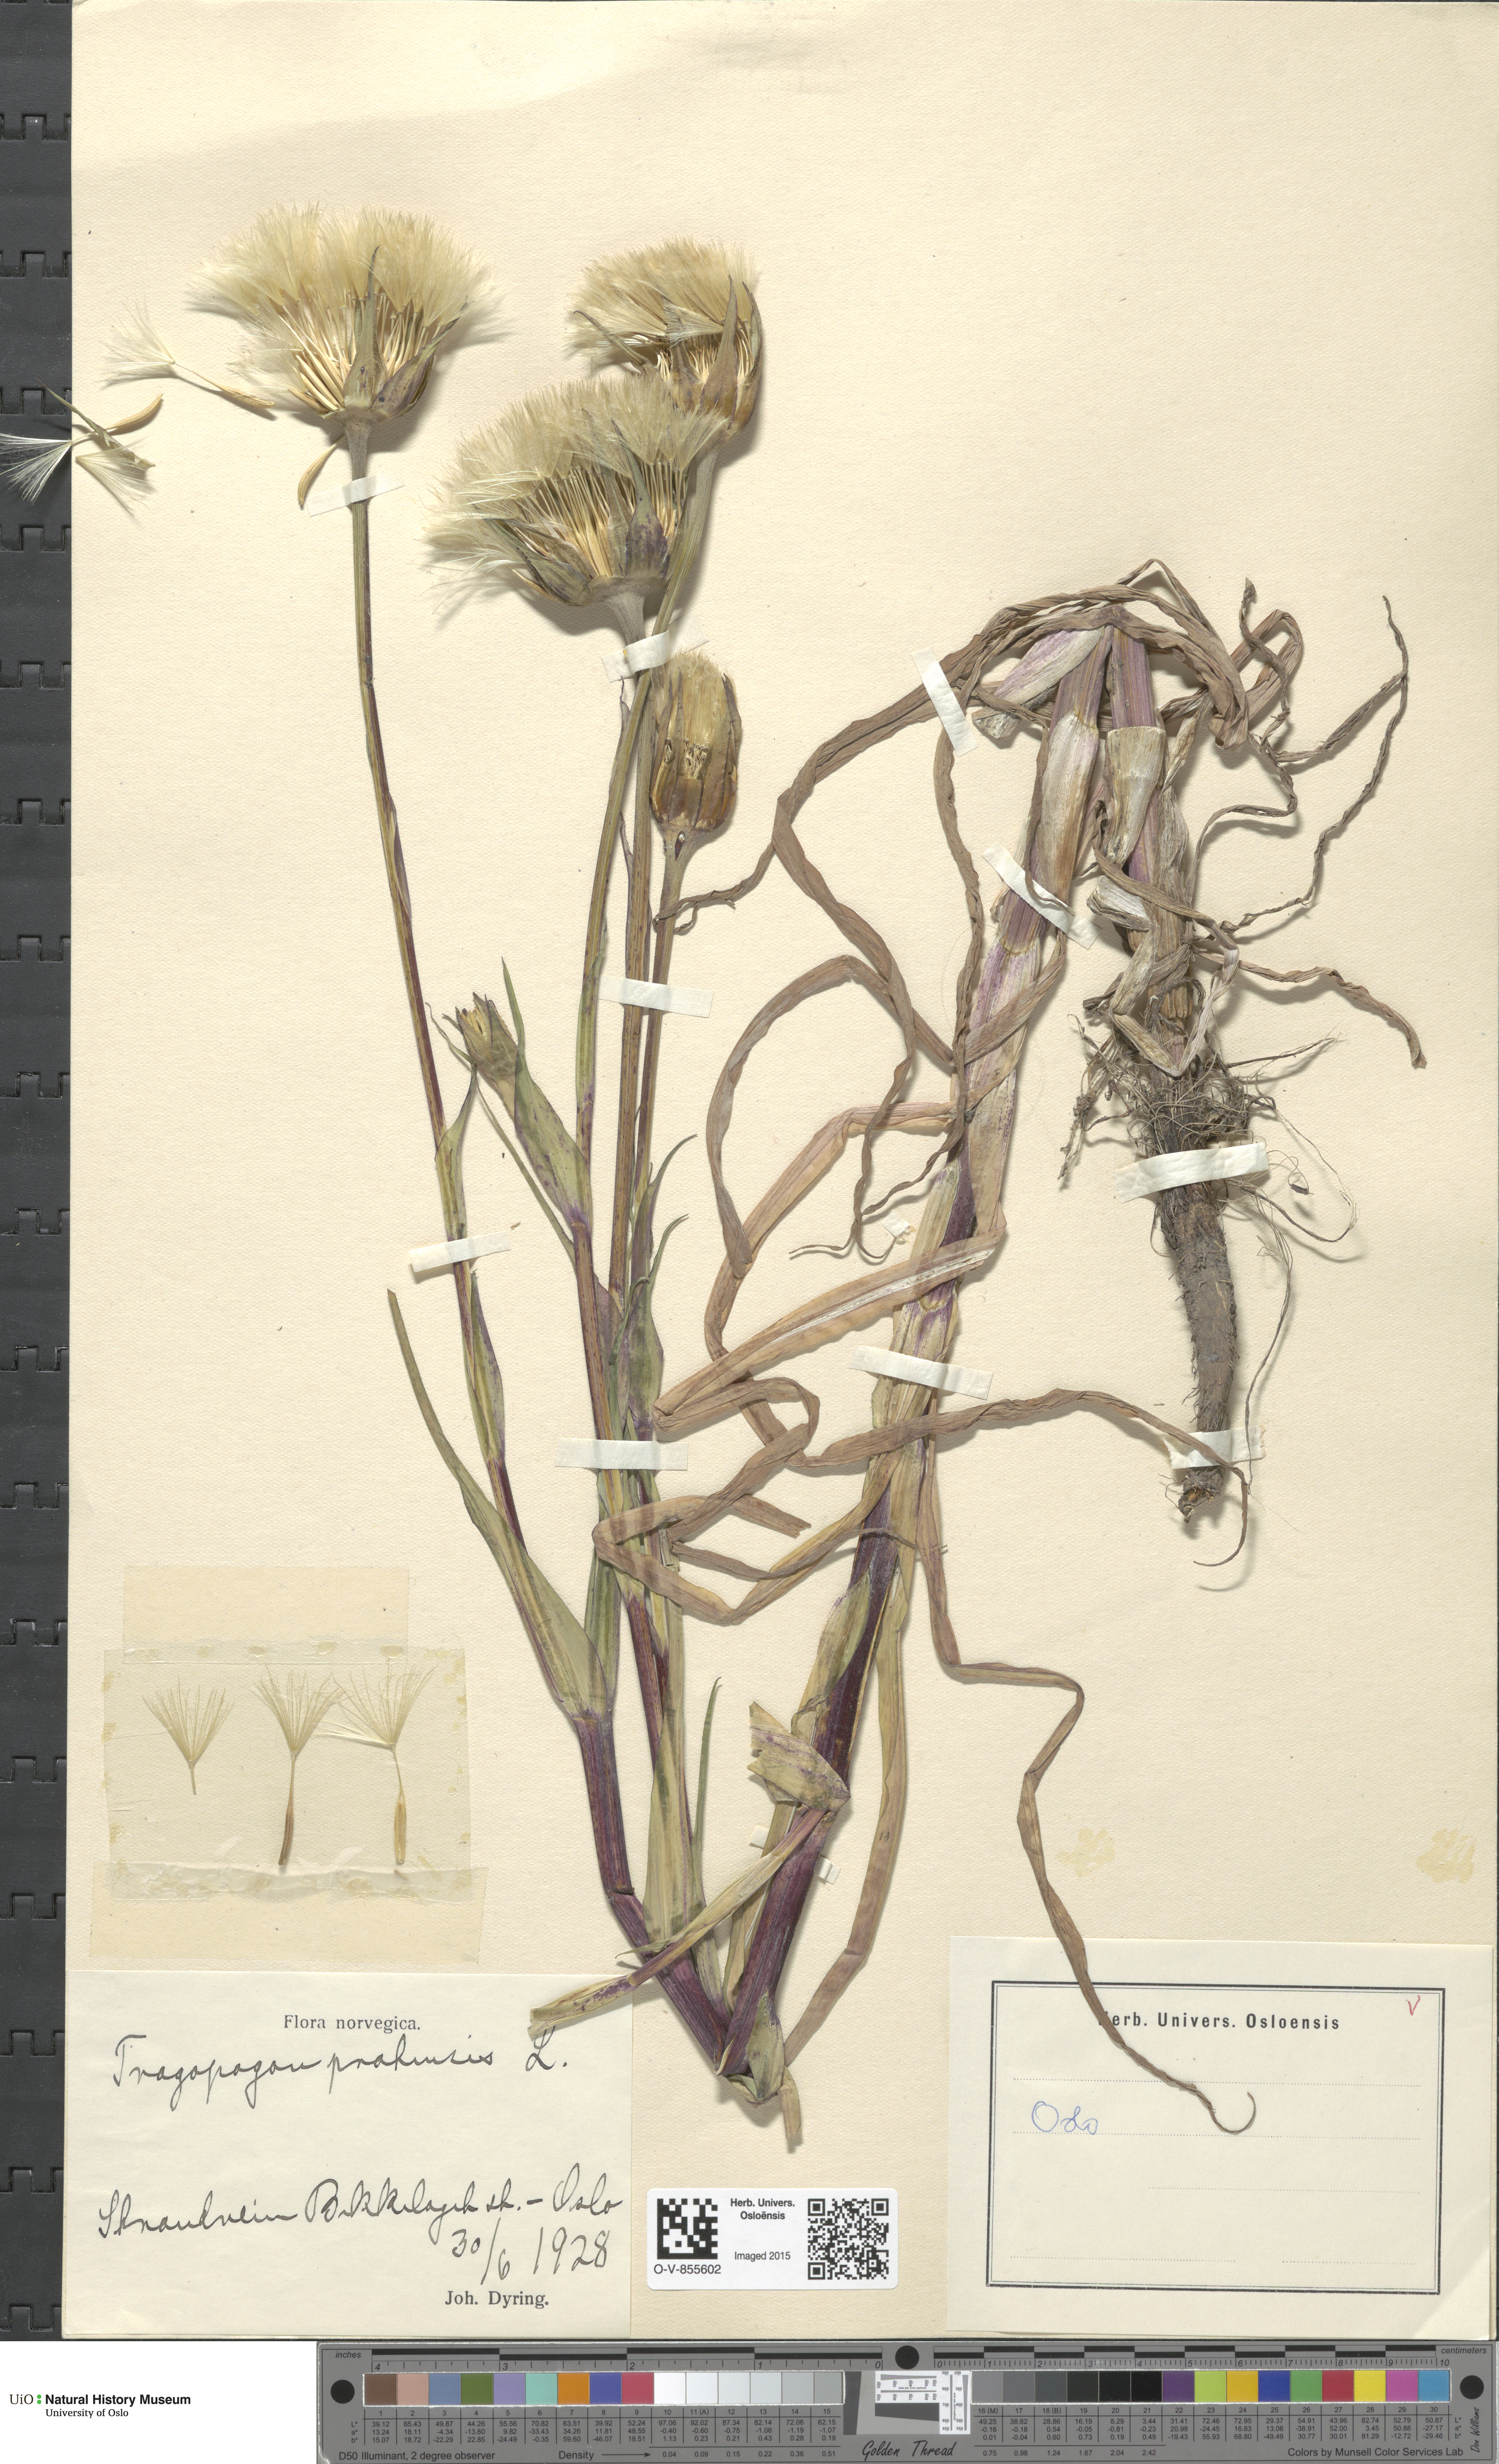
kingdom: Plantae
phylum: Tracheophyta
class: Magnoliopsida
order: Asterales
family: Asteraceae
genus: Tragopogon
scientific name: Tragopogon pratensis
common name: Goat's-beard
